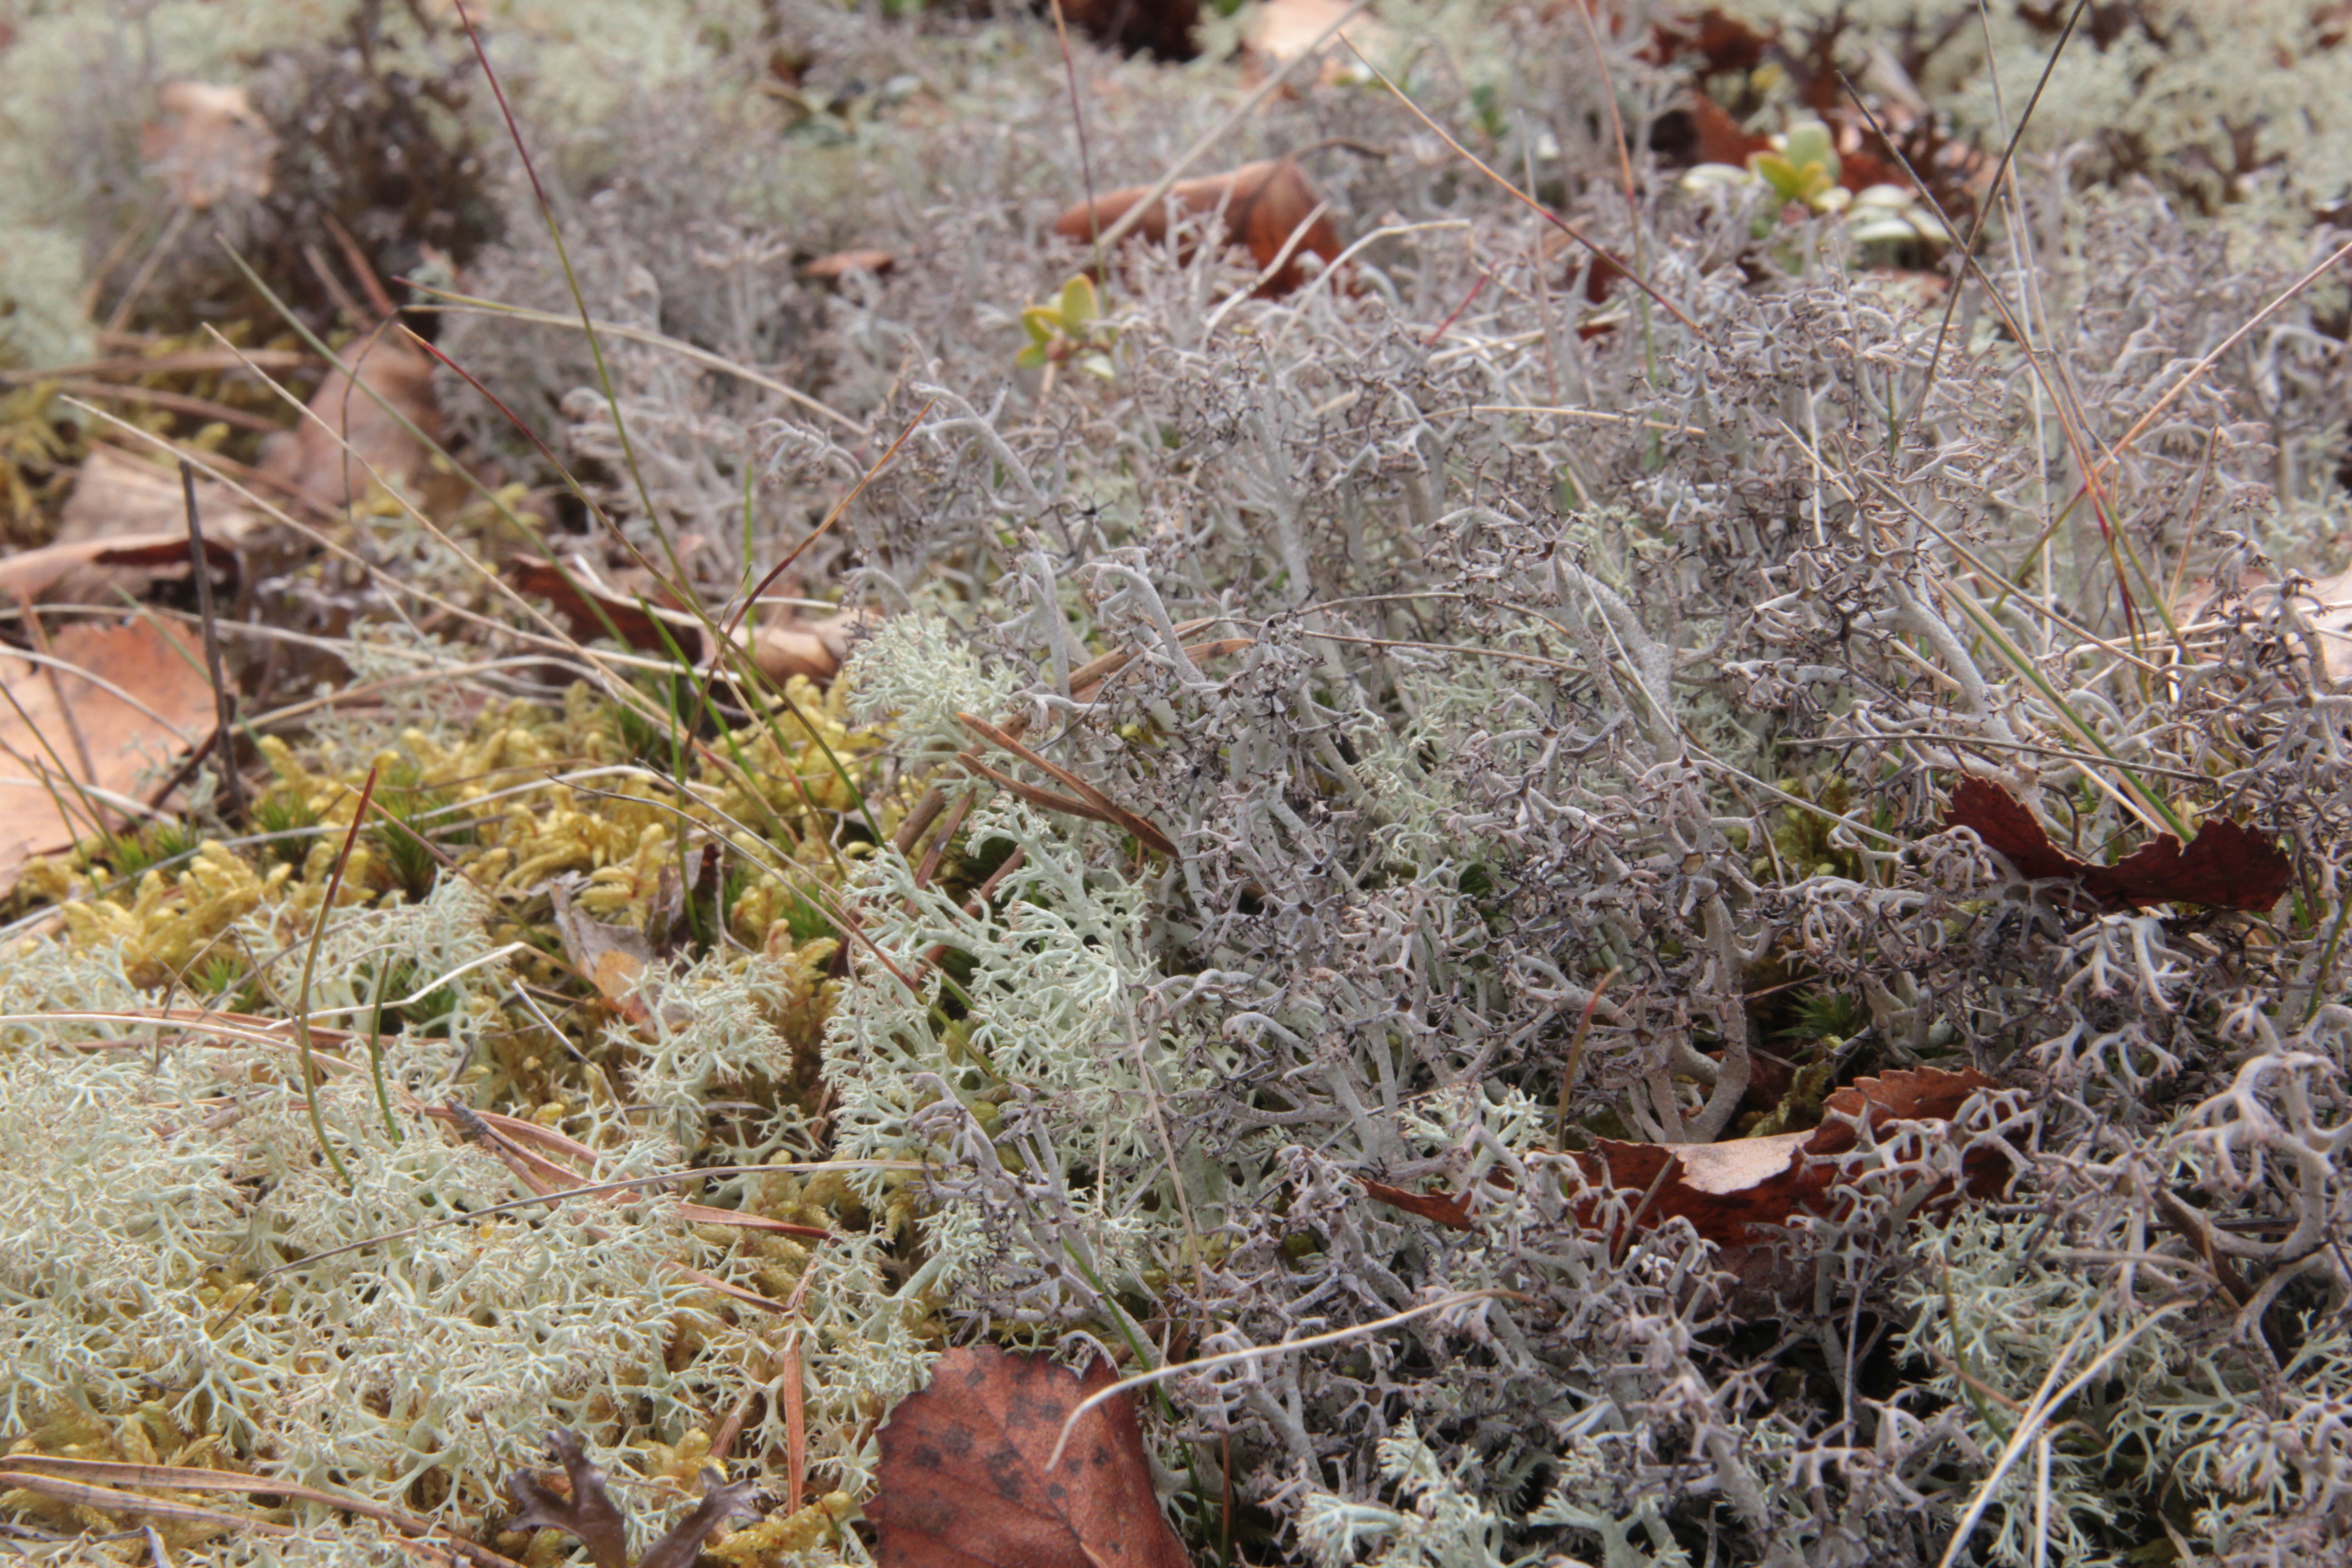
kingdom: Fungi
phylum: Ascomycota
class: Lecanoromycetes
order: Lecanorales
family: Cladoniaceae
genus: Cladonia
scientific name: Cladonia arbuscula
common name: Reindeer lichen
